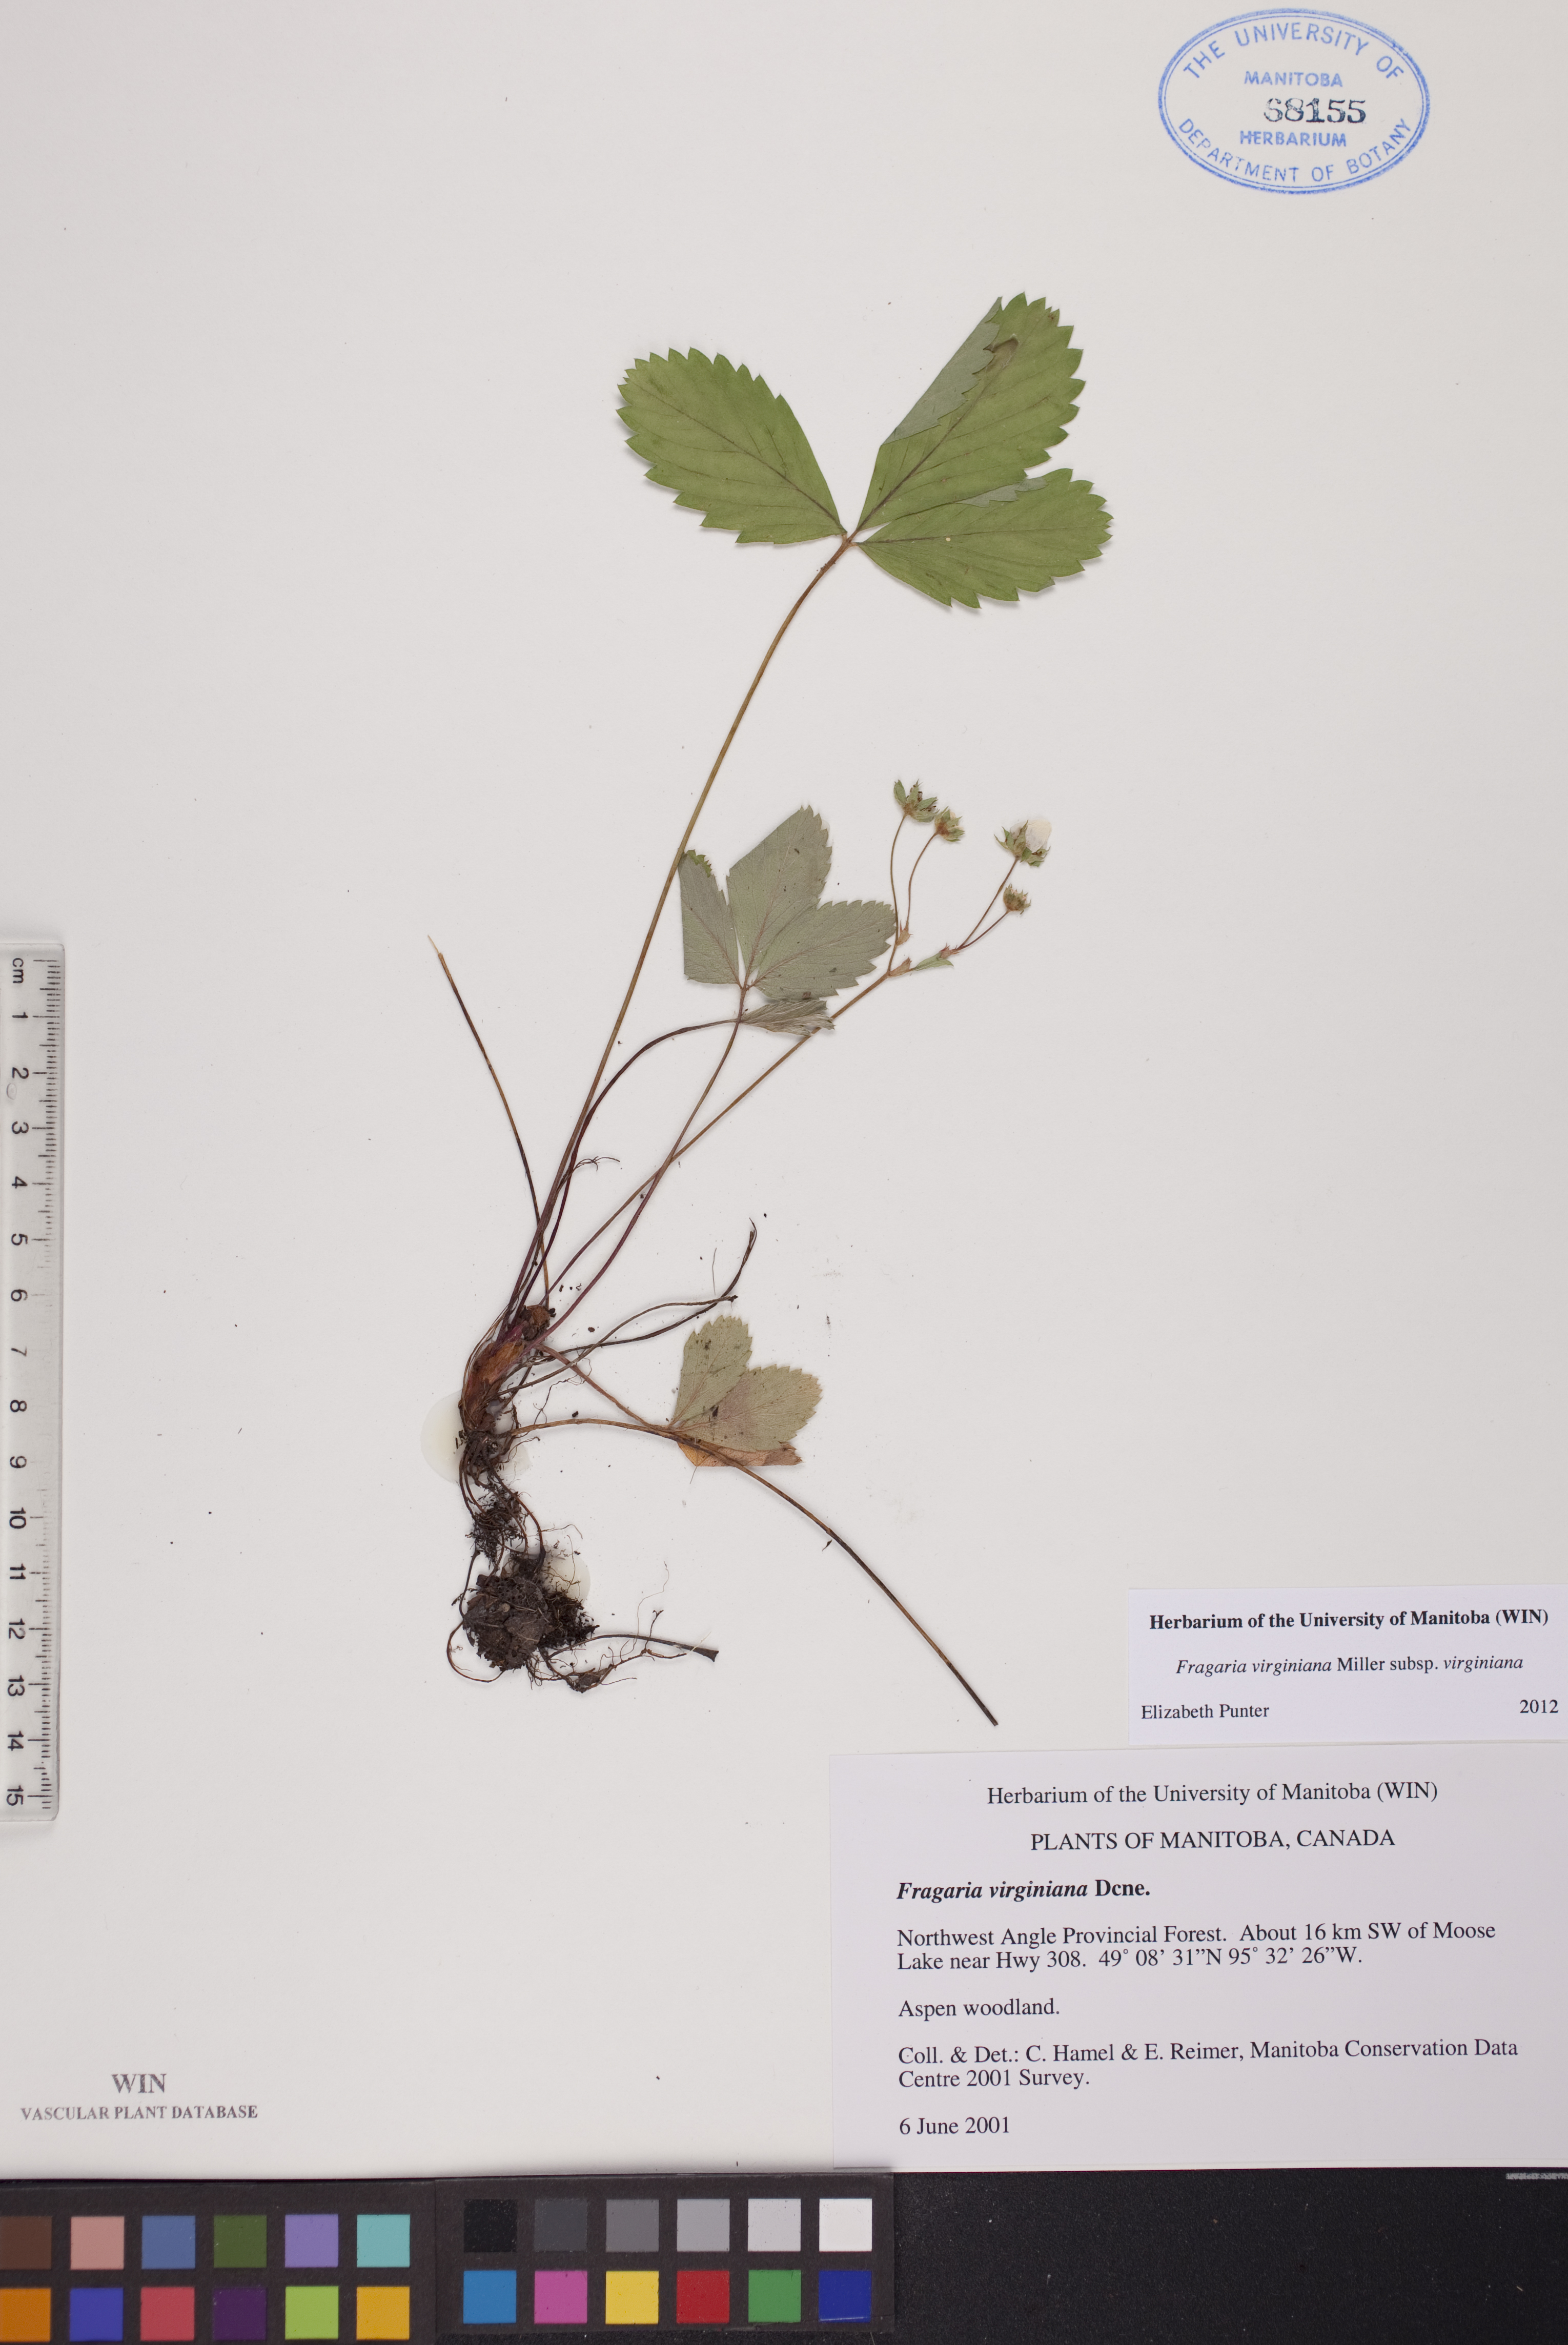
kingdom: Plantae
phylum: Tracheophyta
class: Magnoliopsida
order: Rosales
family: Rosaceae
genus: Fragaria
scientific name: Fragaria virginiana
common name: Thickleaved wild strawberry
